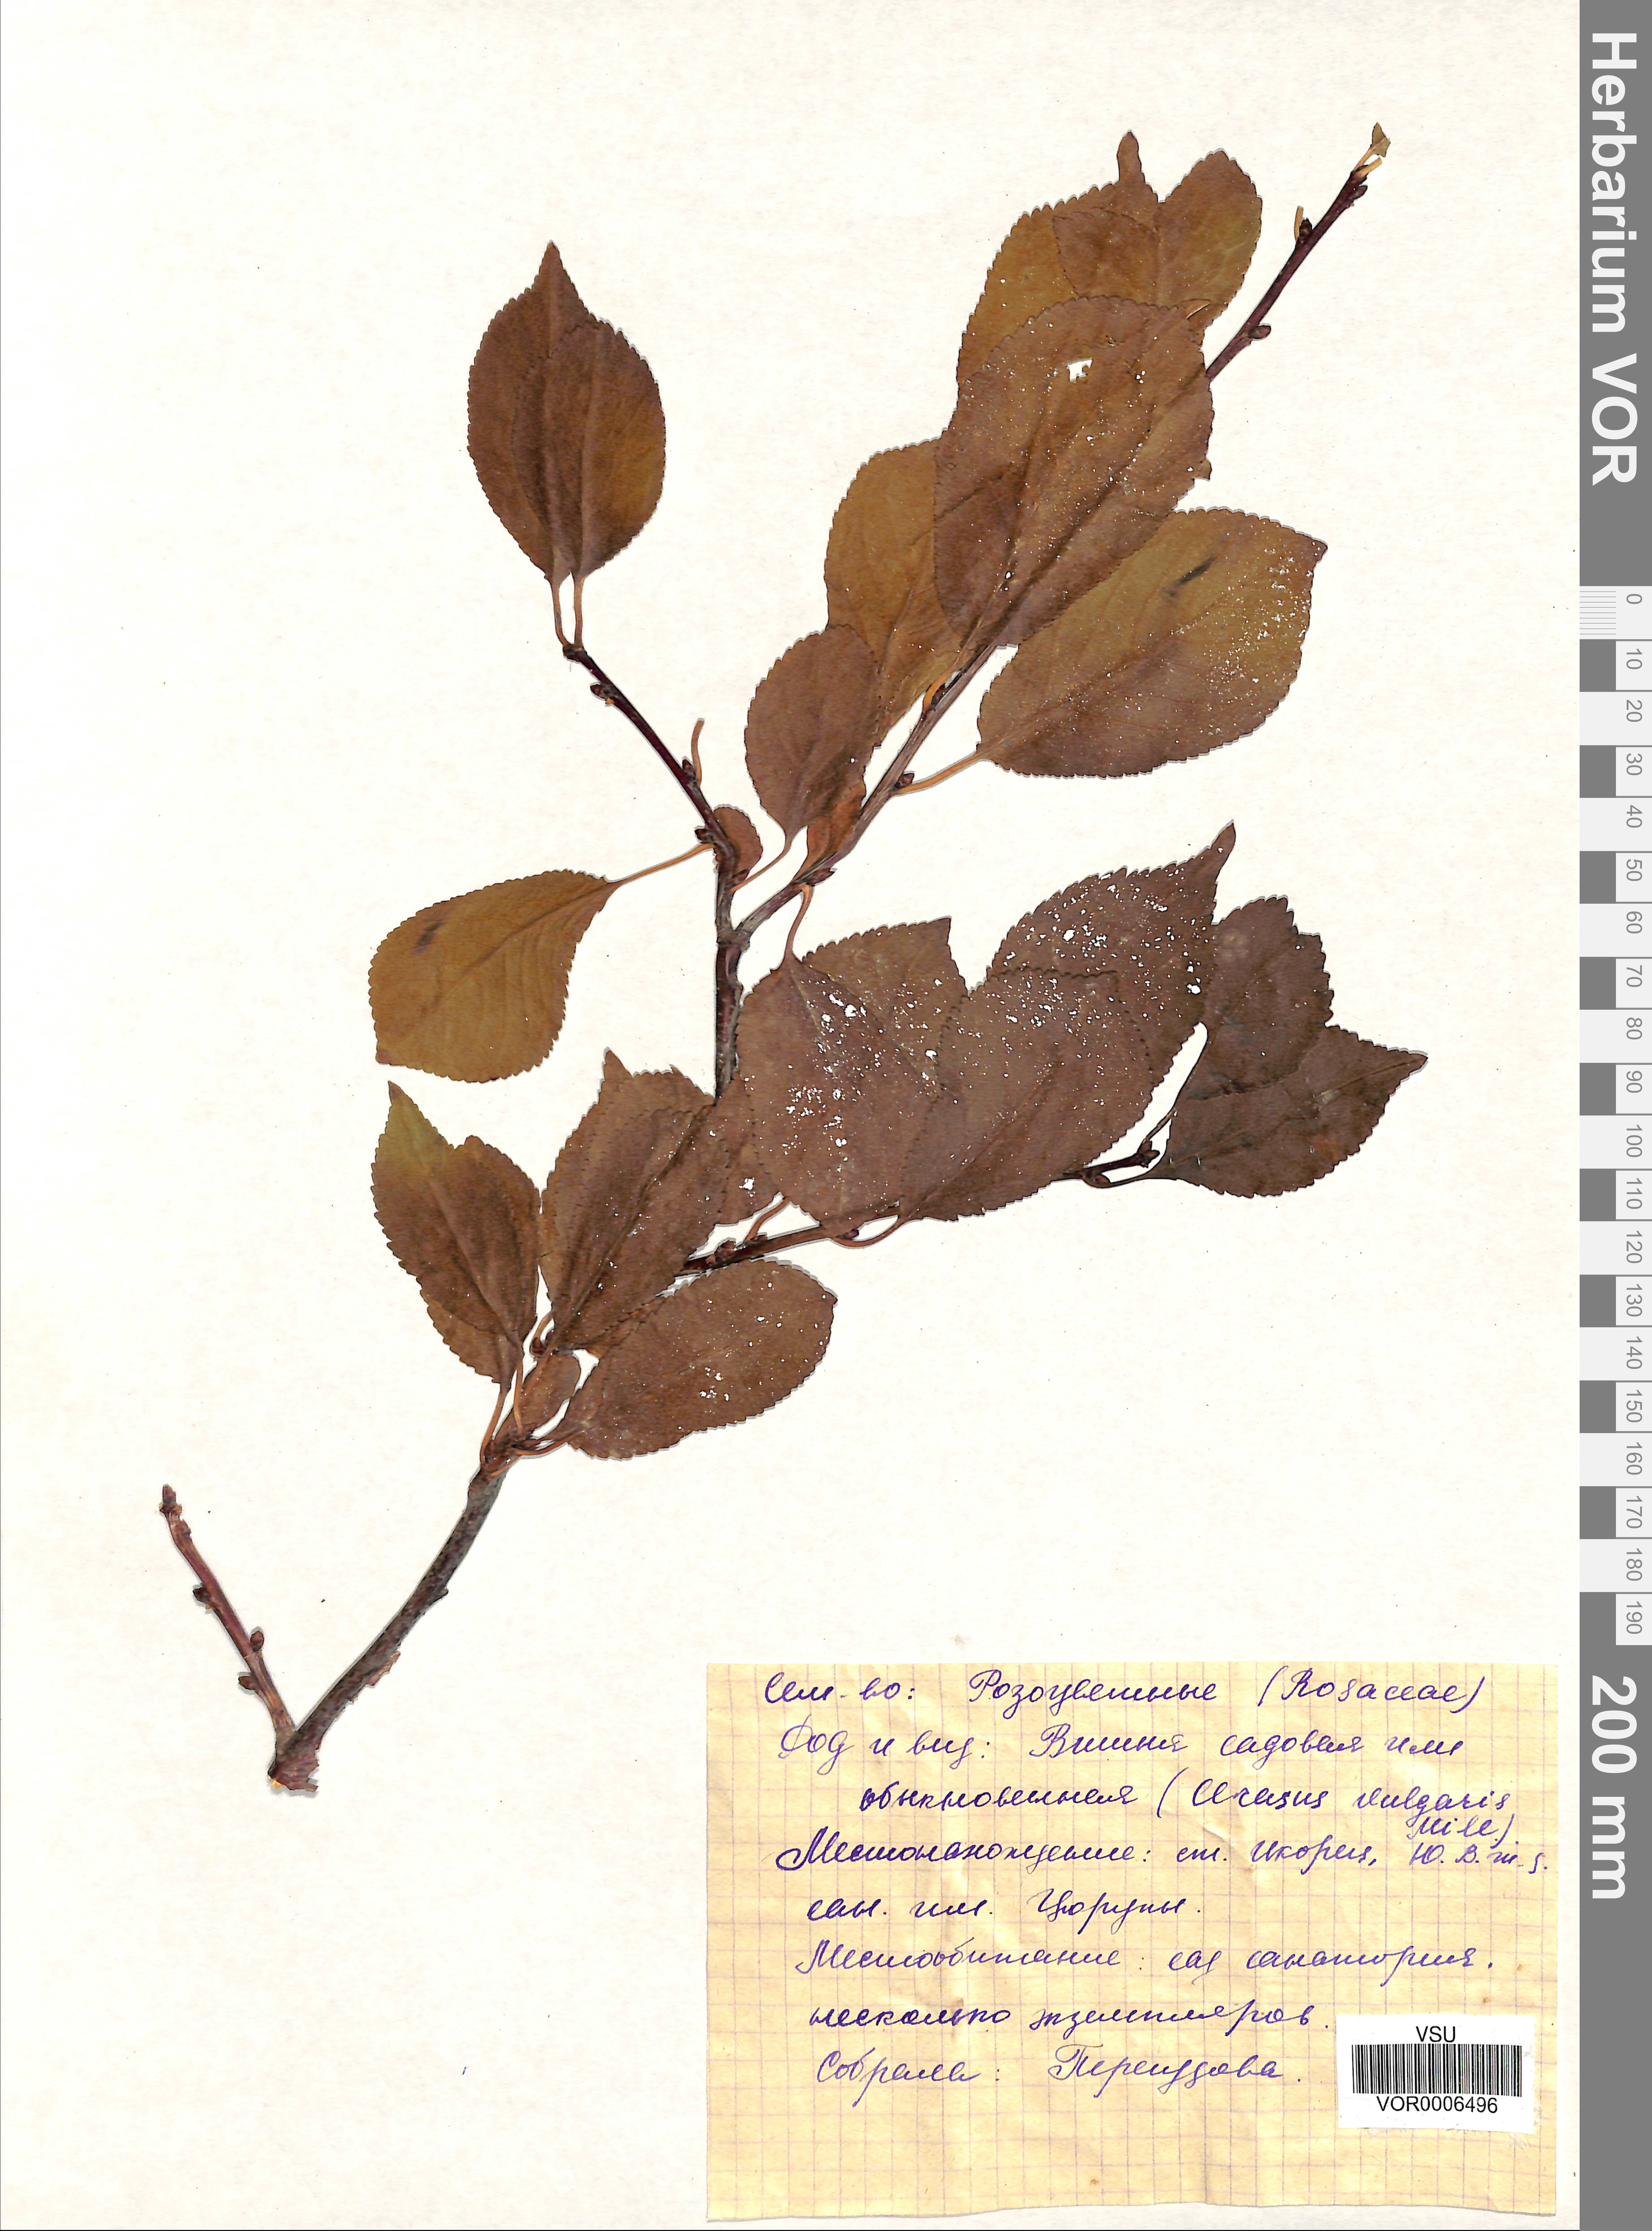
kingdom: Plantae
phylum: Tracheophyta
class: Magnoliopsida
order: Rosales
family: Rosaceae
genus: Prunus
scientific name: Prunus cerasus
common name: Morello cherry
